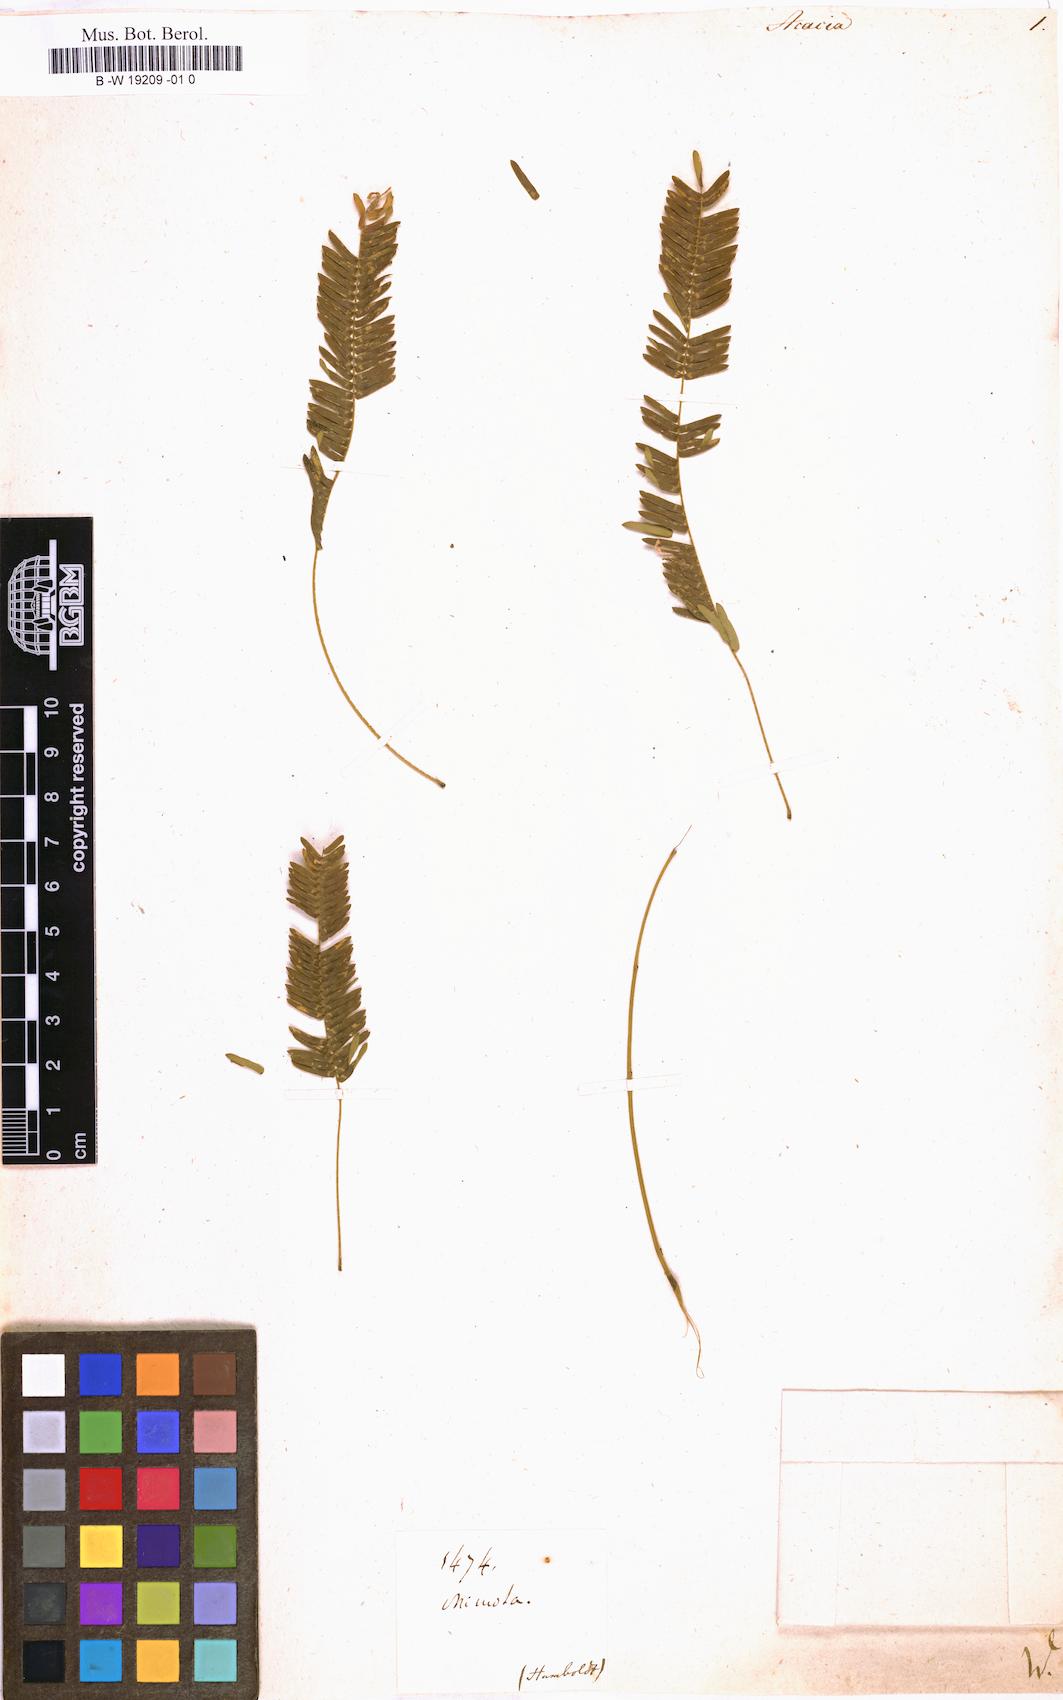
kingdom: Plantae
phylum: Tracheophyta
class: Magnoliopsida
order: Fabales
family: Fabaceae
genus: Acacia
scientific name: Acacia
